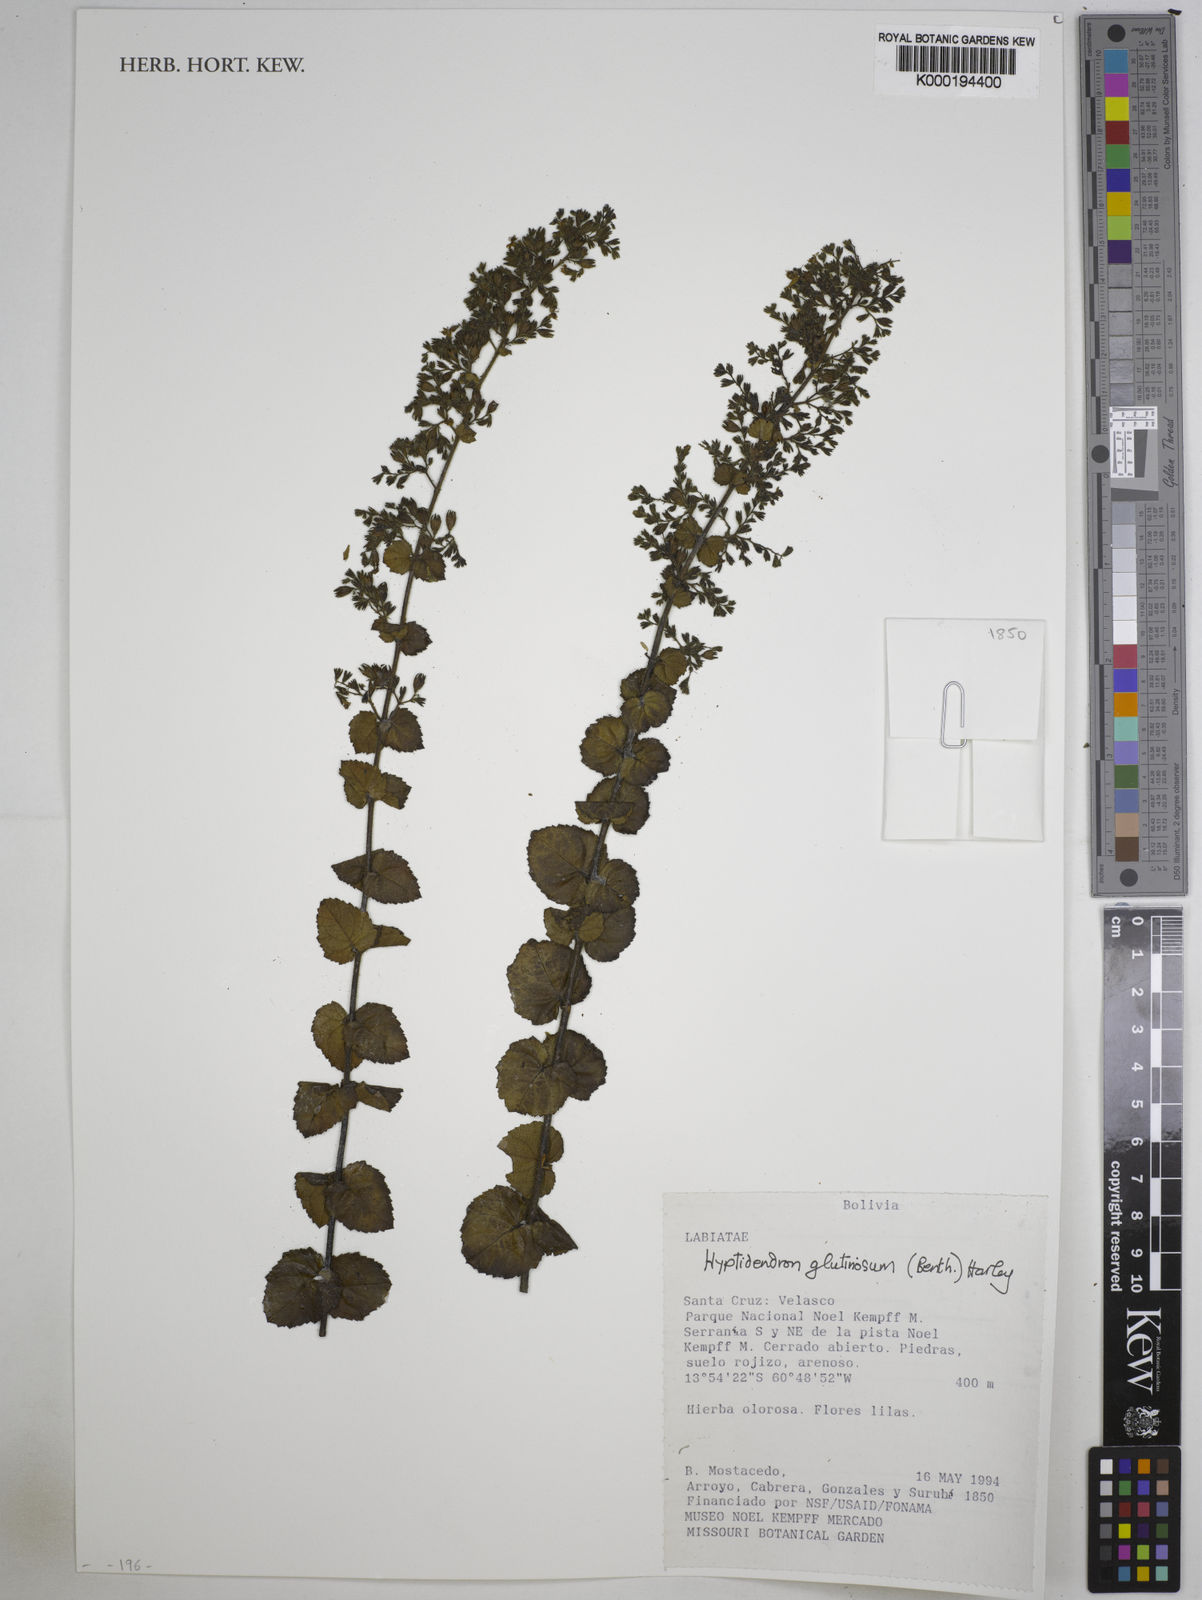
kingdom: Plantae
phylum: Tracheophyta
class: Magnoliopsida
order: Lamiales
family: Lamiaceae
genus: Hyptidendron
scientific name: Hyptidendron glutinosum
